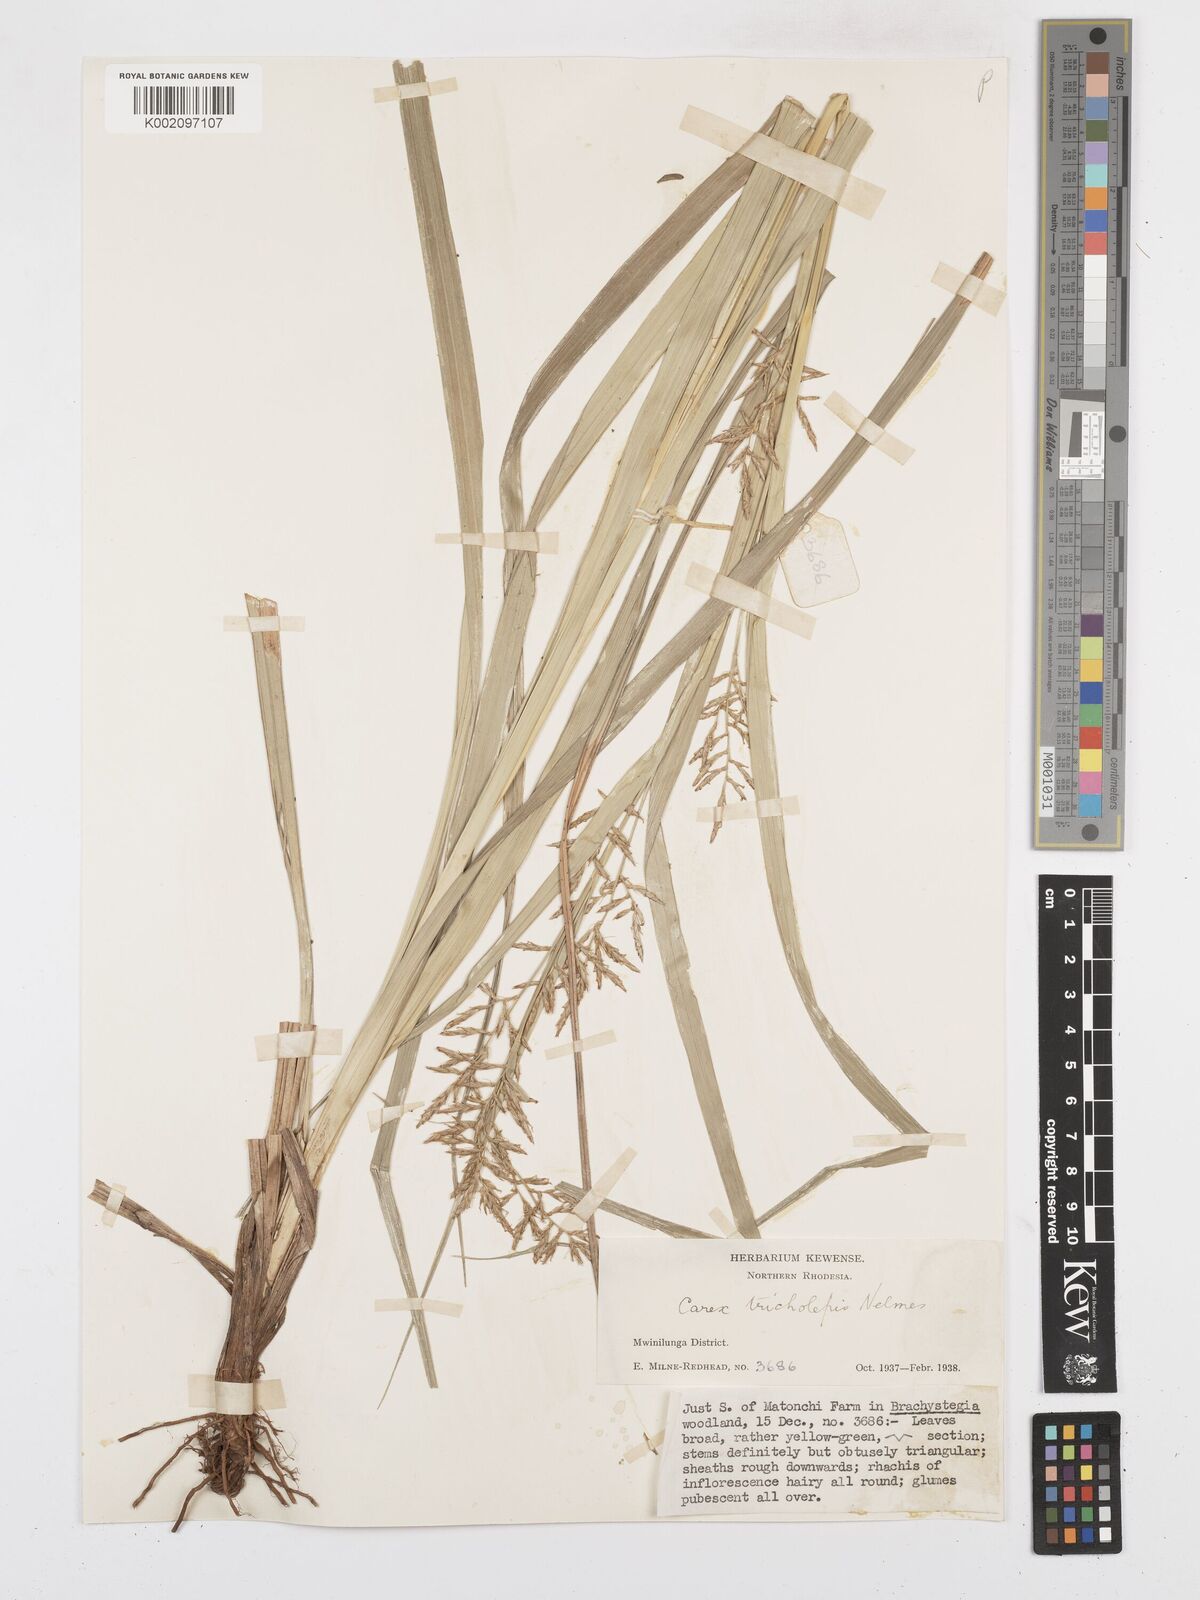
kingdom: Plantae
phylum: Tracheophyta
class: Liliopsida
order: Poales
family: Cyperaceae
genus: Carex
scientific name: Carex tricholepis
